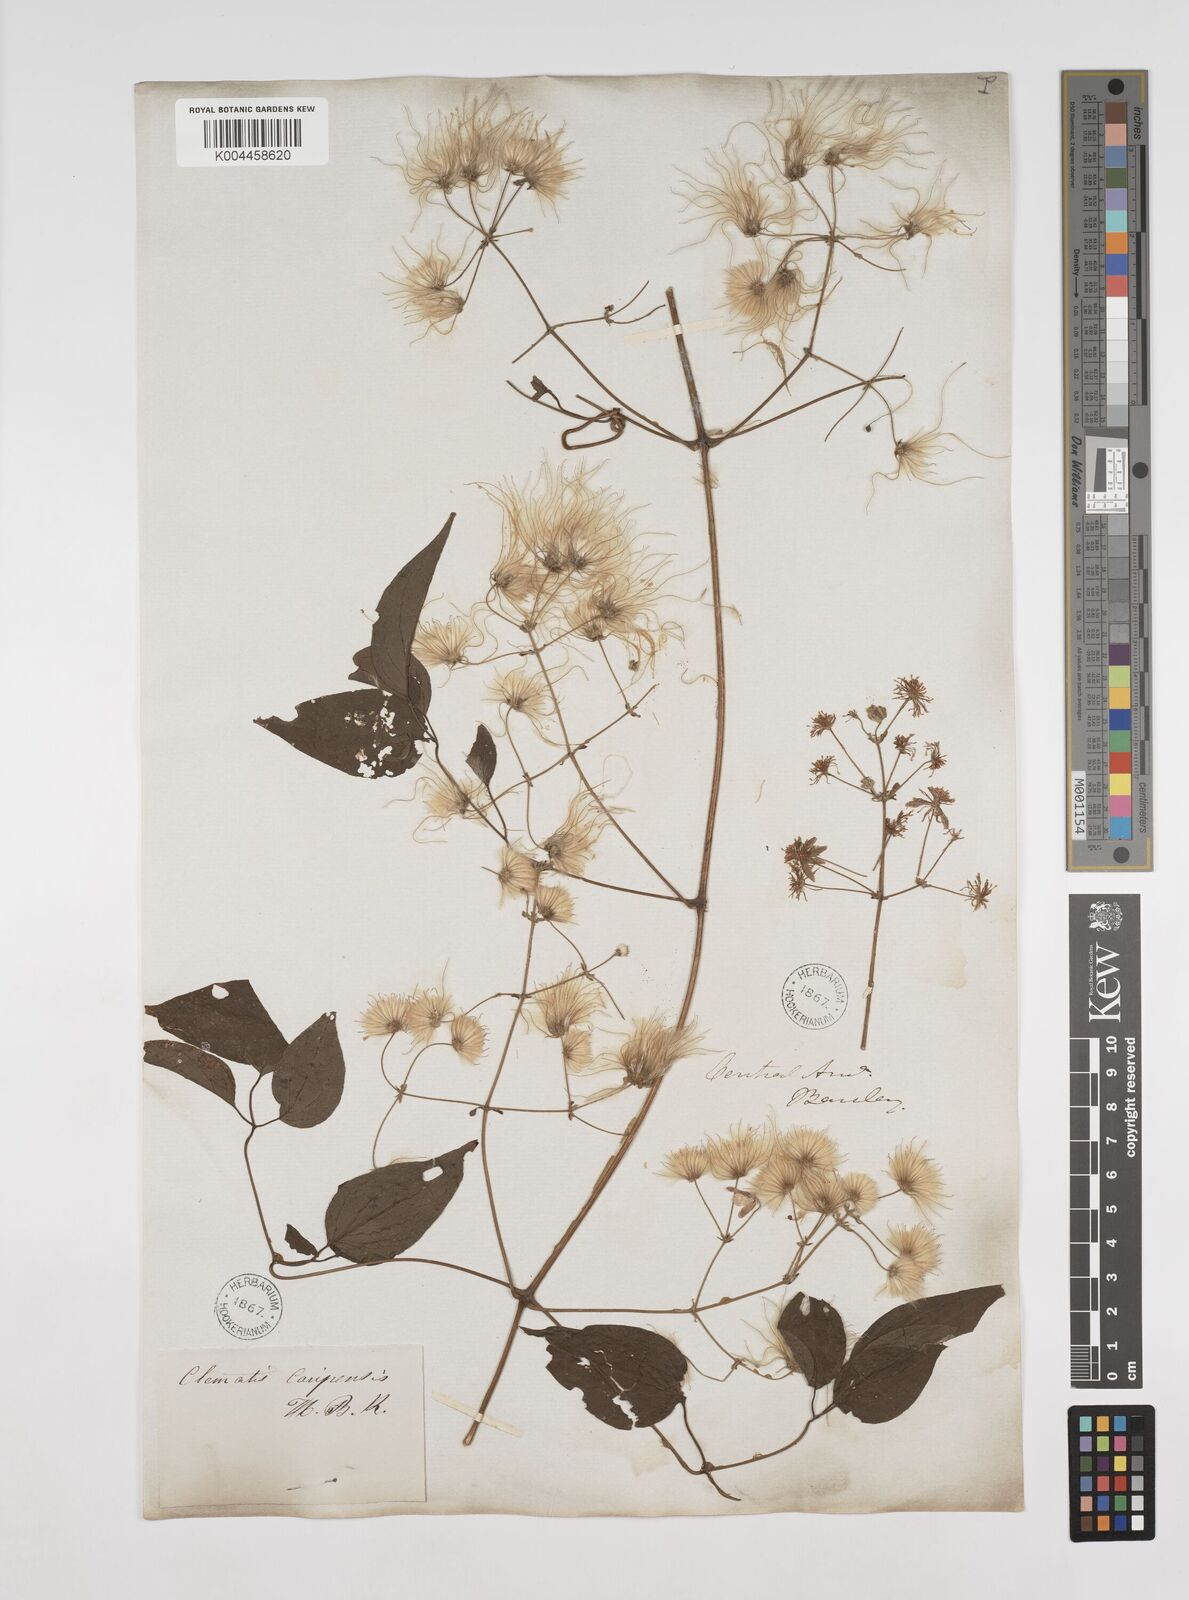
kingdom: Plantae
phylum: Tracheophyta
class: Magnoliopsida
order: Ranunculales
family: Ranunculaceae
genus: Clematis
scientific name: Clematis guadeloupae
